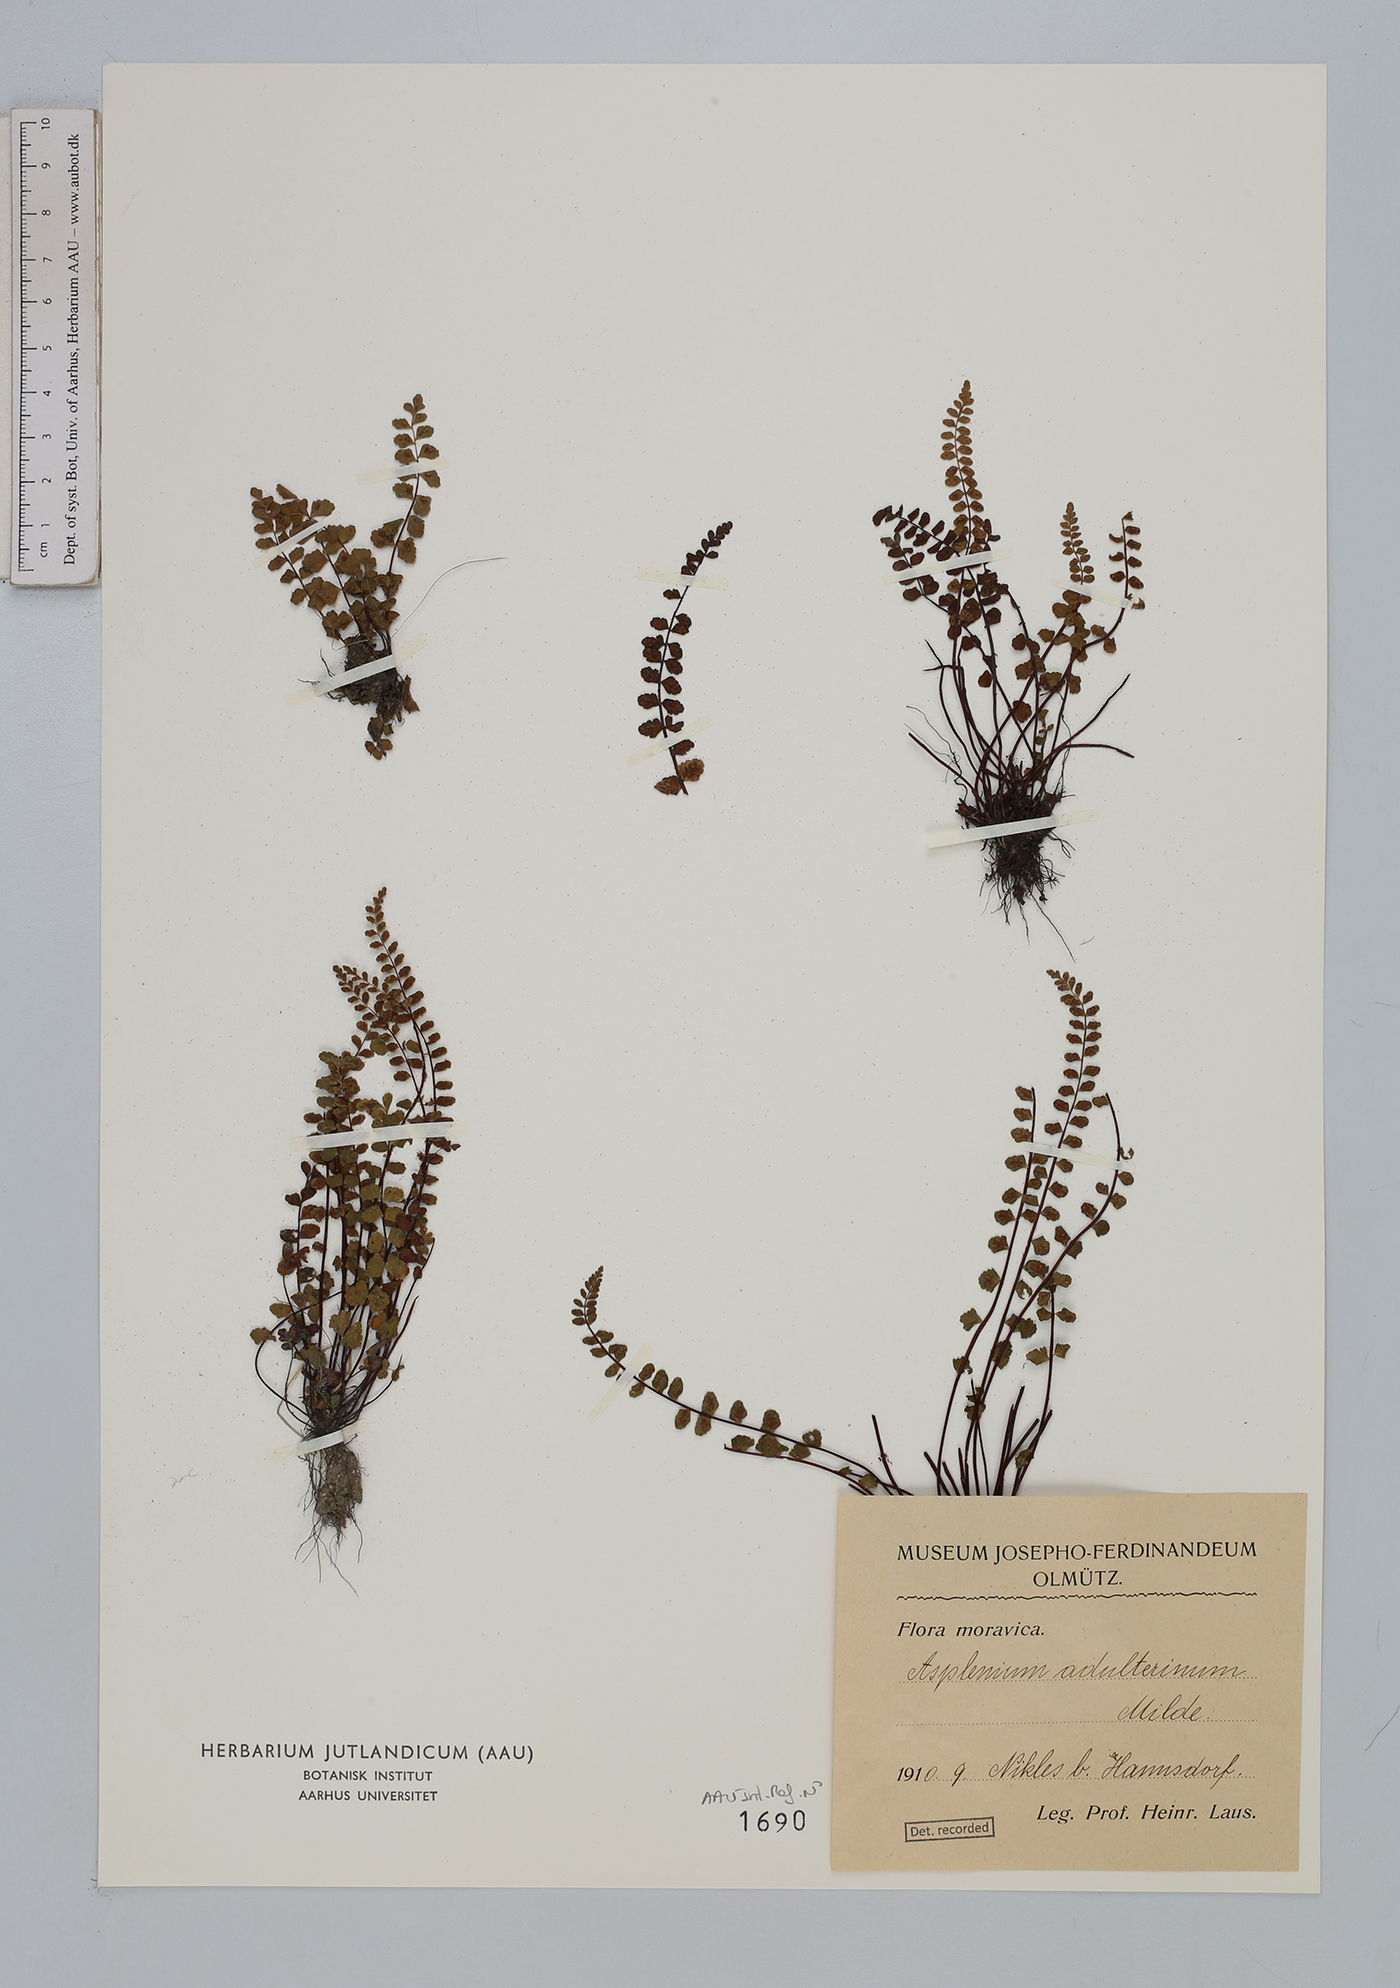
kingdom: Plantae
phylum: Tracheophyta
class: Polypodiopsida
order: Polypodiales
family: Aspleniaceae
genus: Asplenium
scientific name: Asplenium adulterinum
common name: Adulterated spleenwort
